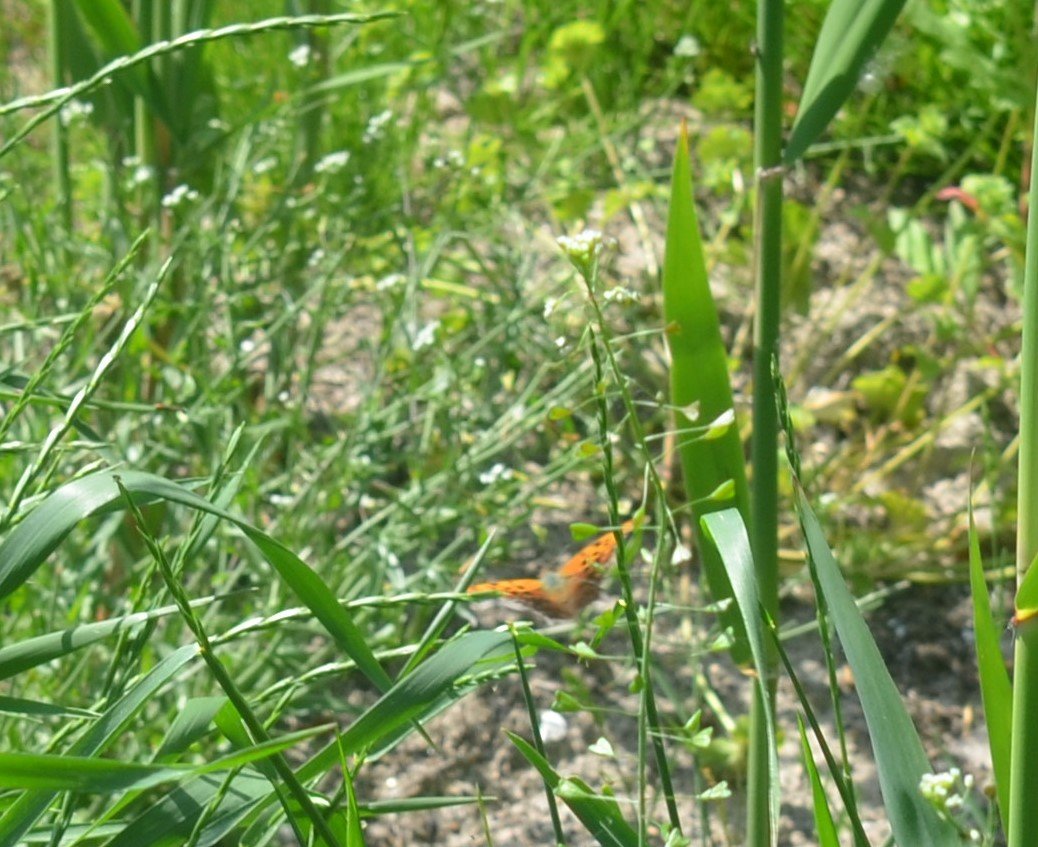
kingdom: Animalia
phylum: Arthropoda
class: Insecta
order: Lepidoptera
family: Nymphalidae
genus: Polygonia
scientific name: Polygonia interrogationis
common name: Question Mark
